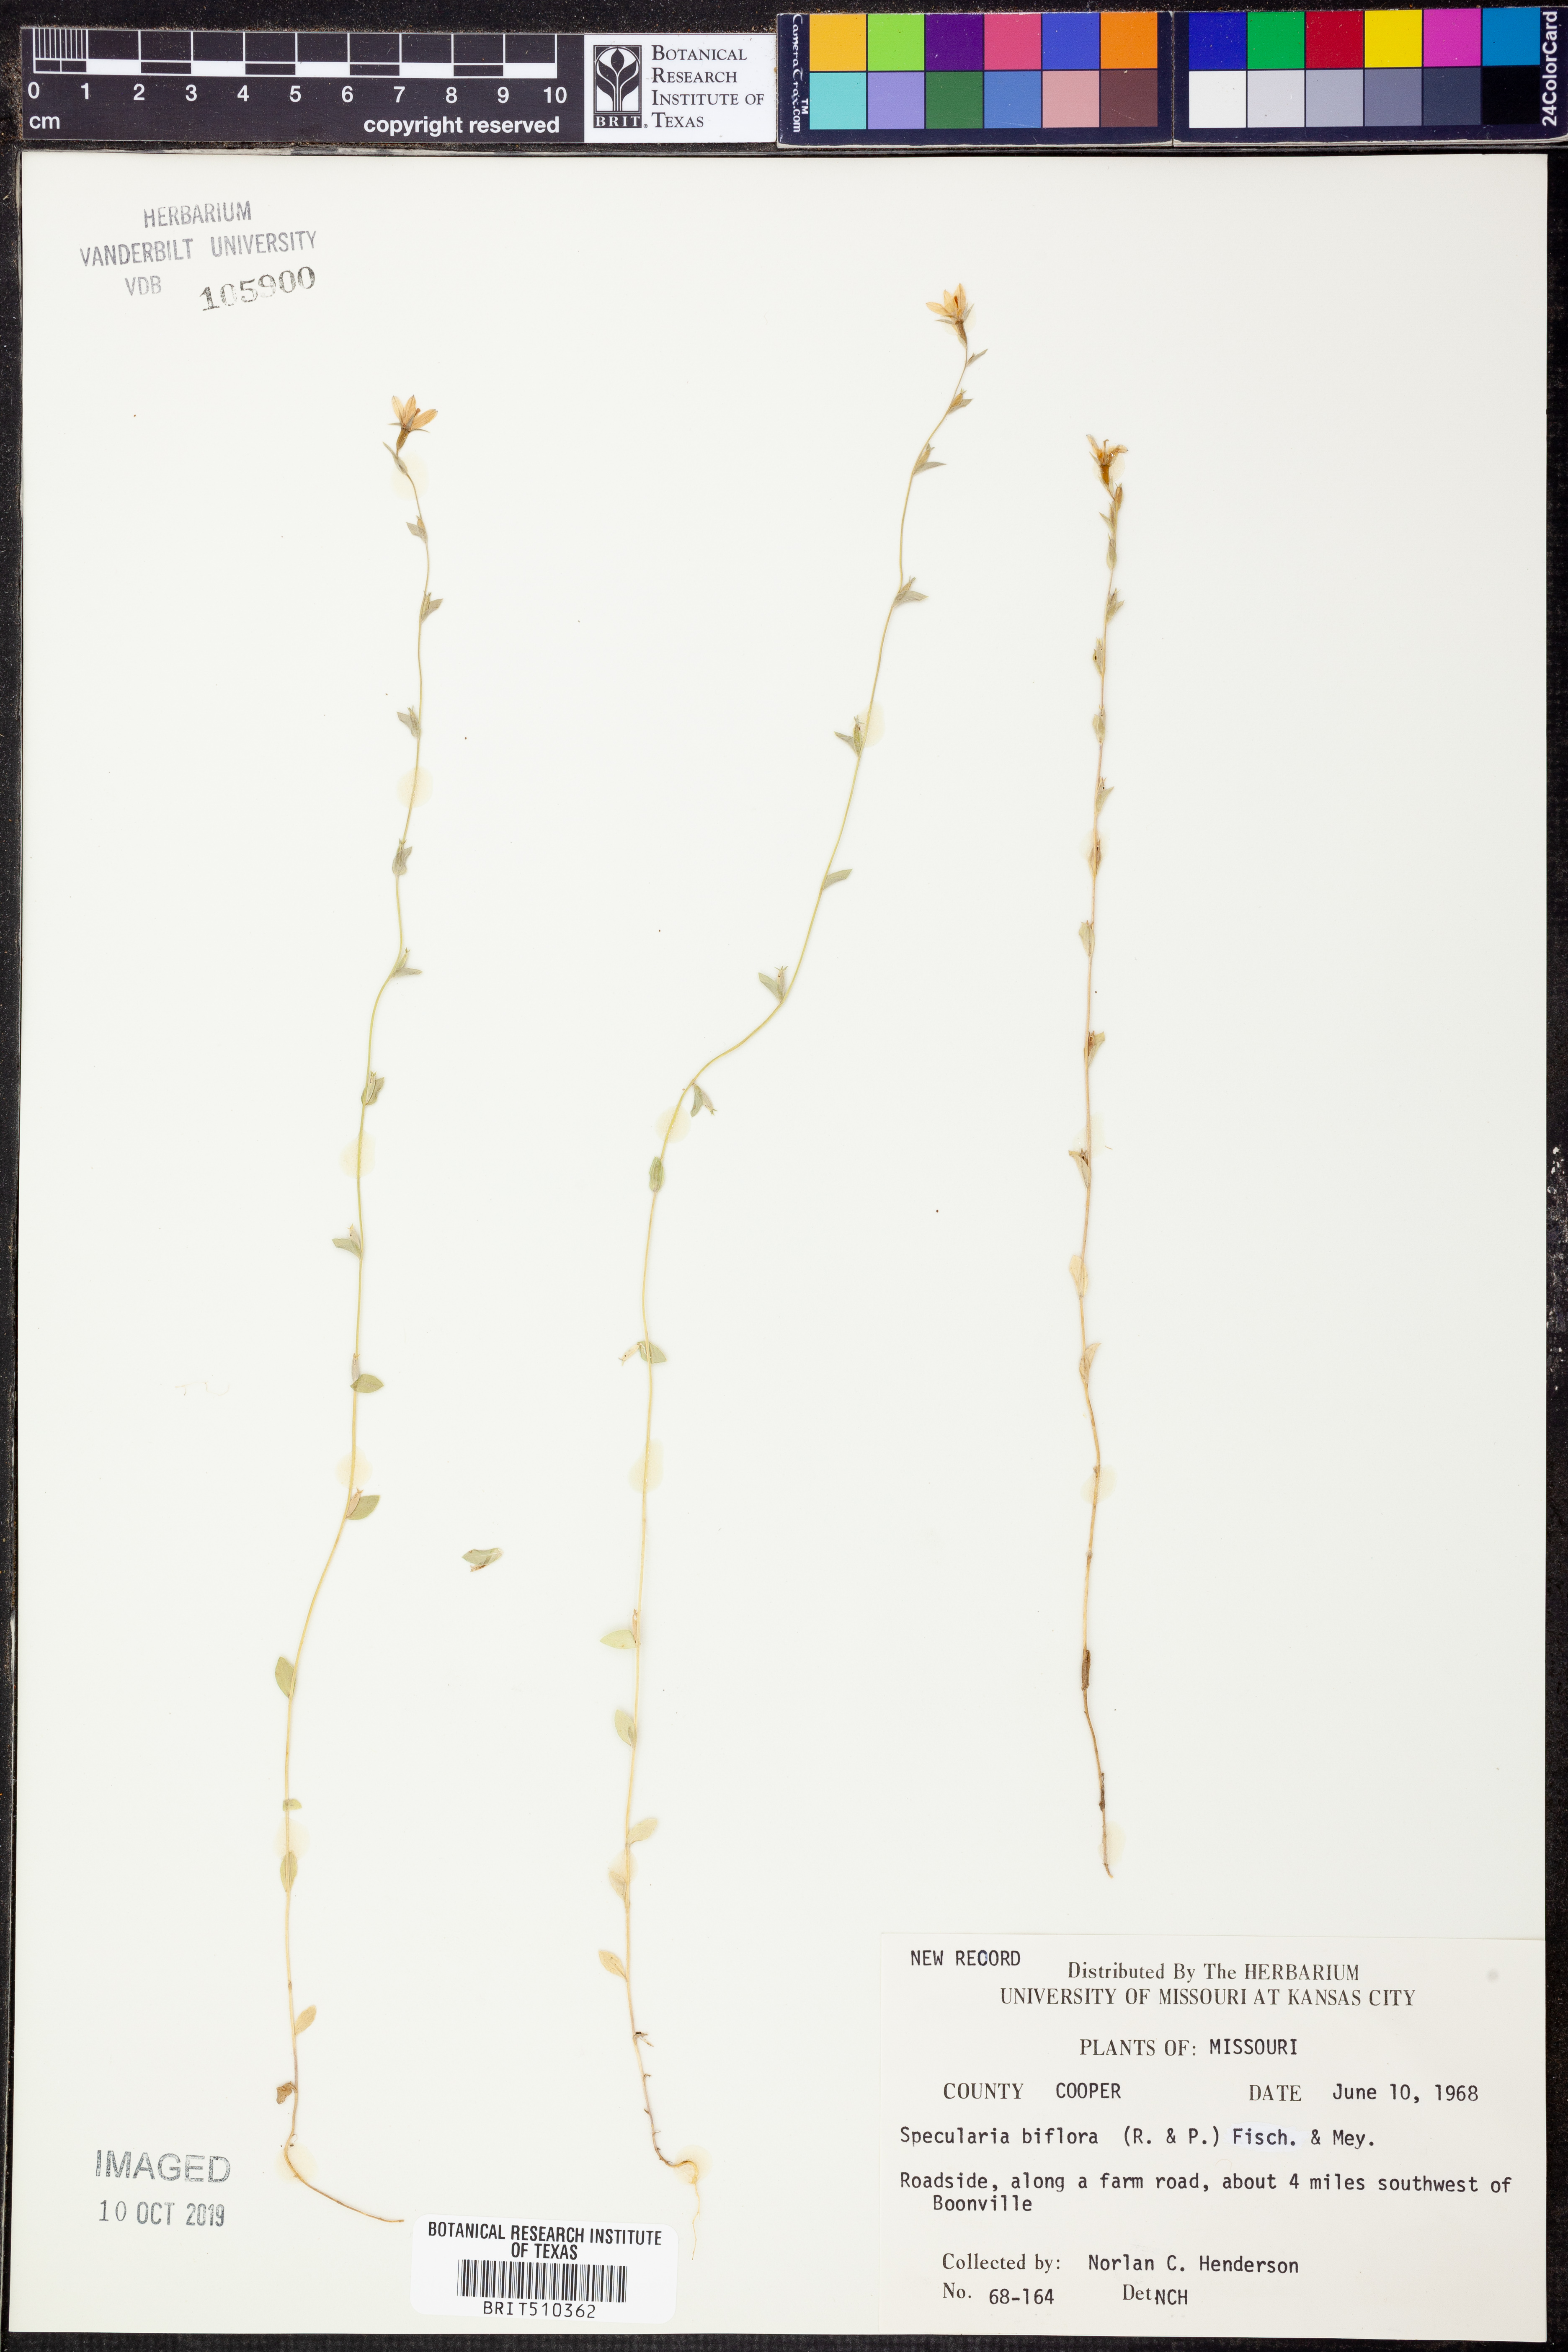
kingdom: Plantae
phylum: Tracheophyta
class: Magnoliopsida
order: Asterales
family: Campanulaceae
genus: Triodanis
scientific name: Triodanis perfoliata
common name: Clasping venus' looking-glass
